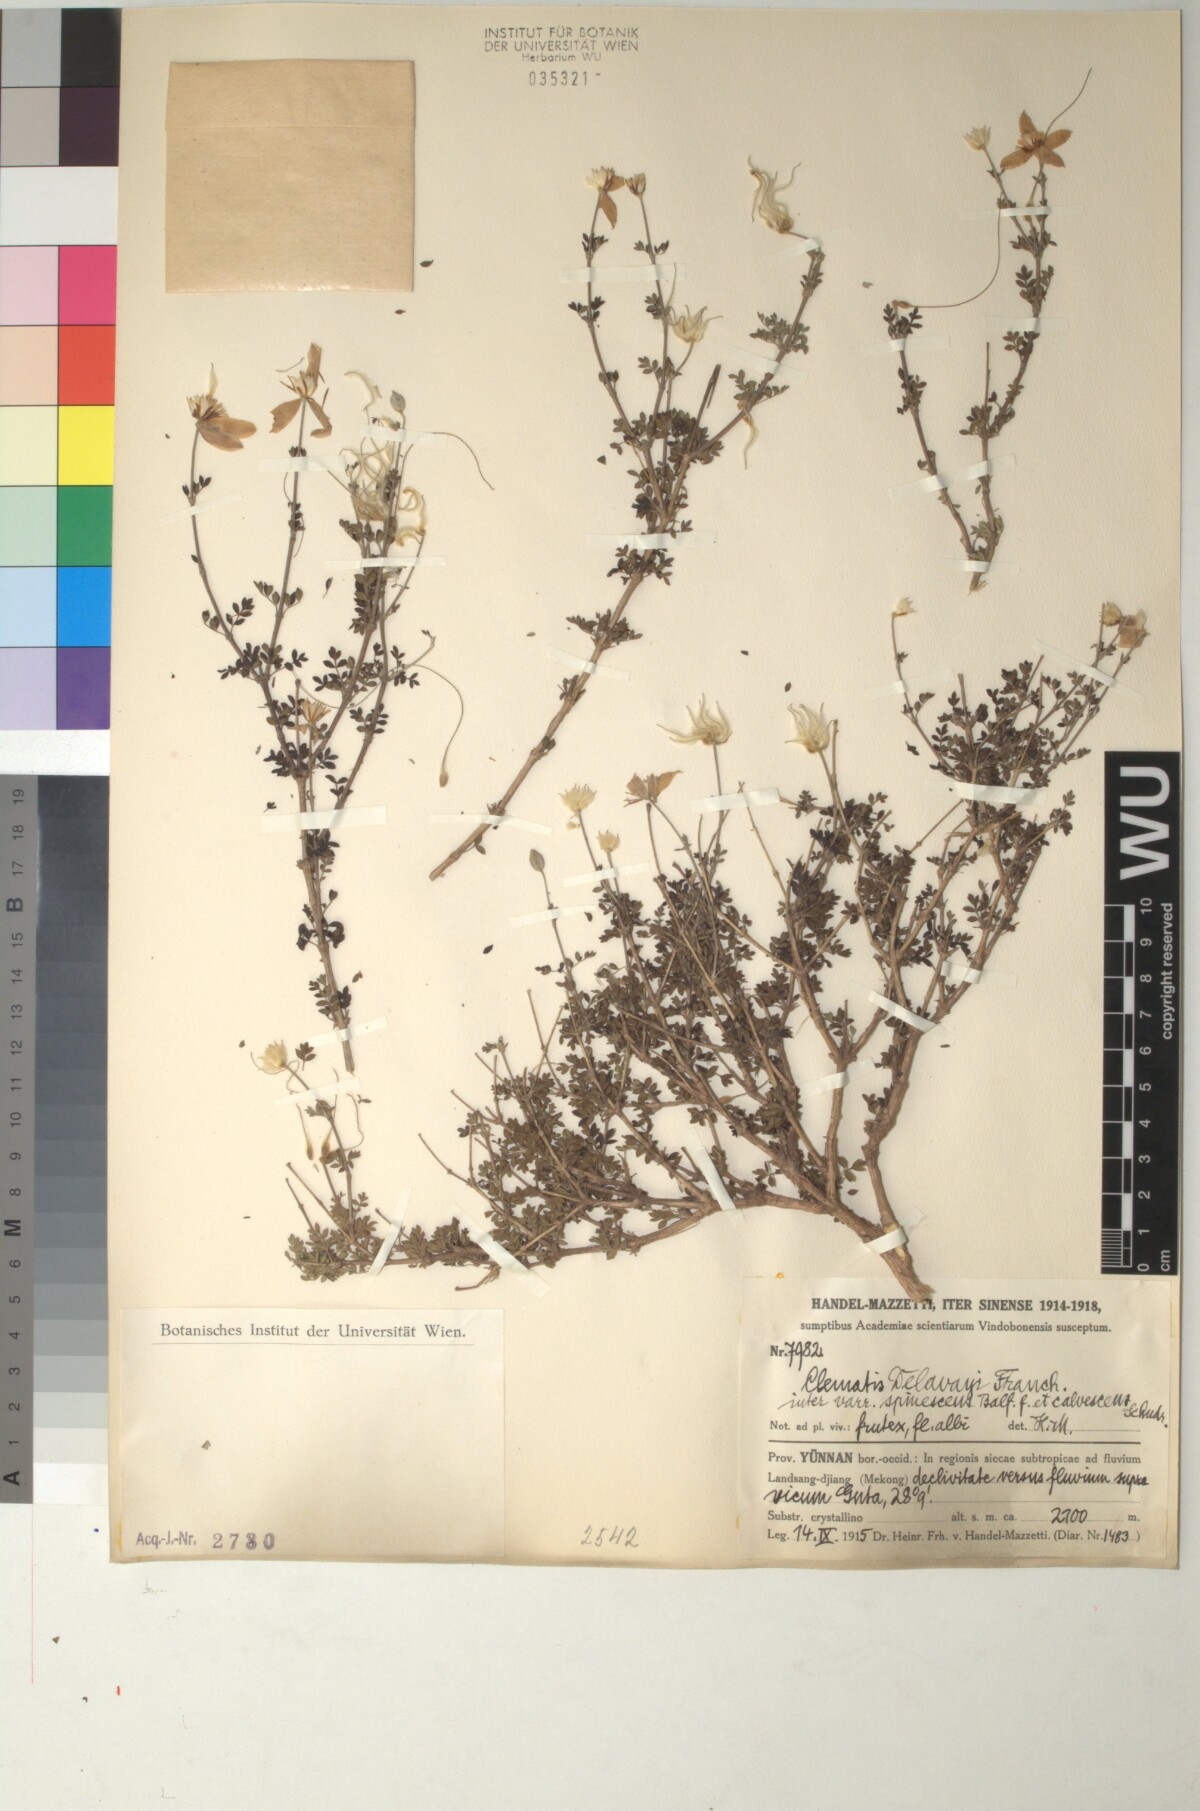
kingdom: Plantae
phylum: Tracheophyta
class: Magnoliopsida
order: Ranunculales
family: Ranunculaceae
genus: Clematis
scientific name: Clematis delavayi
